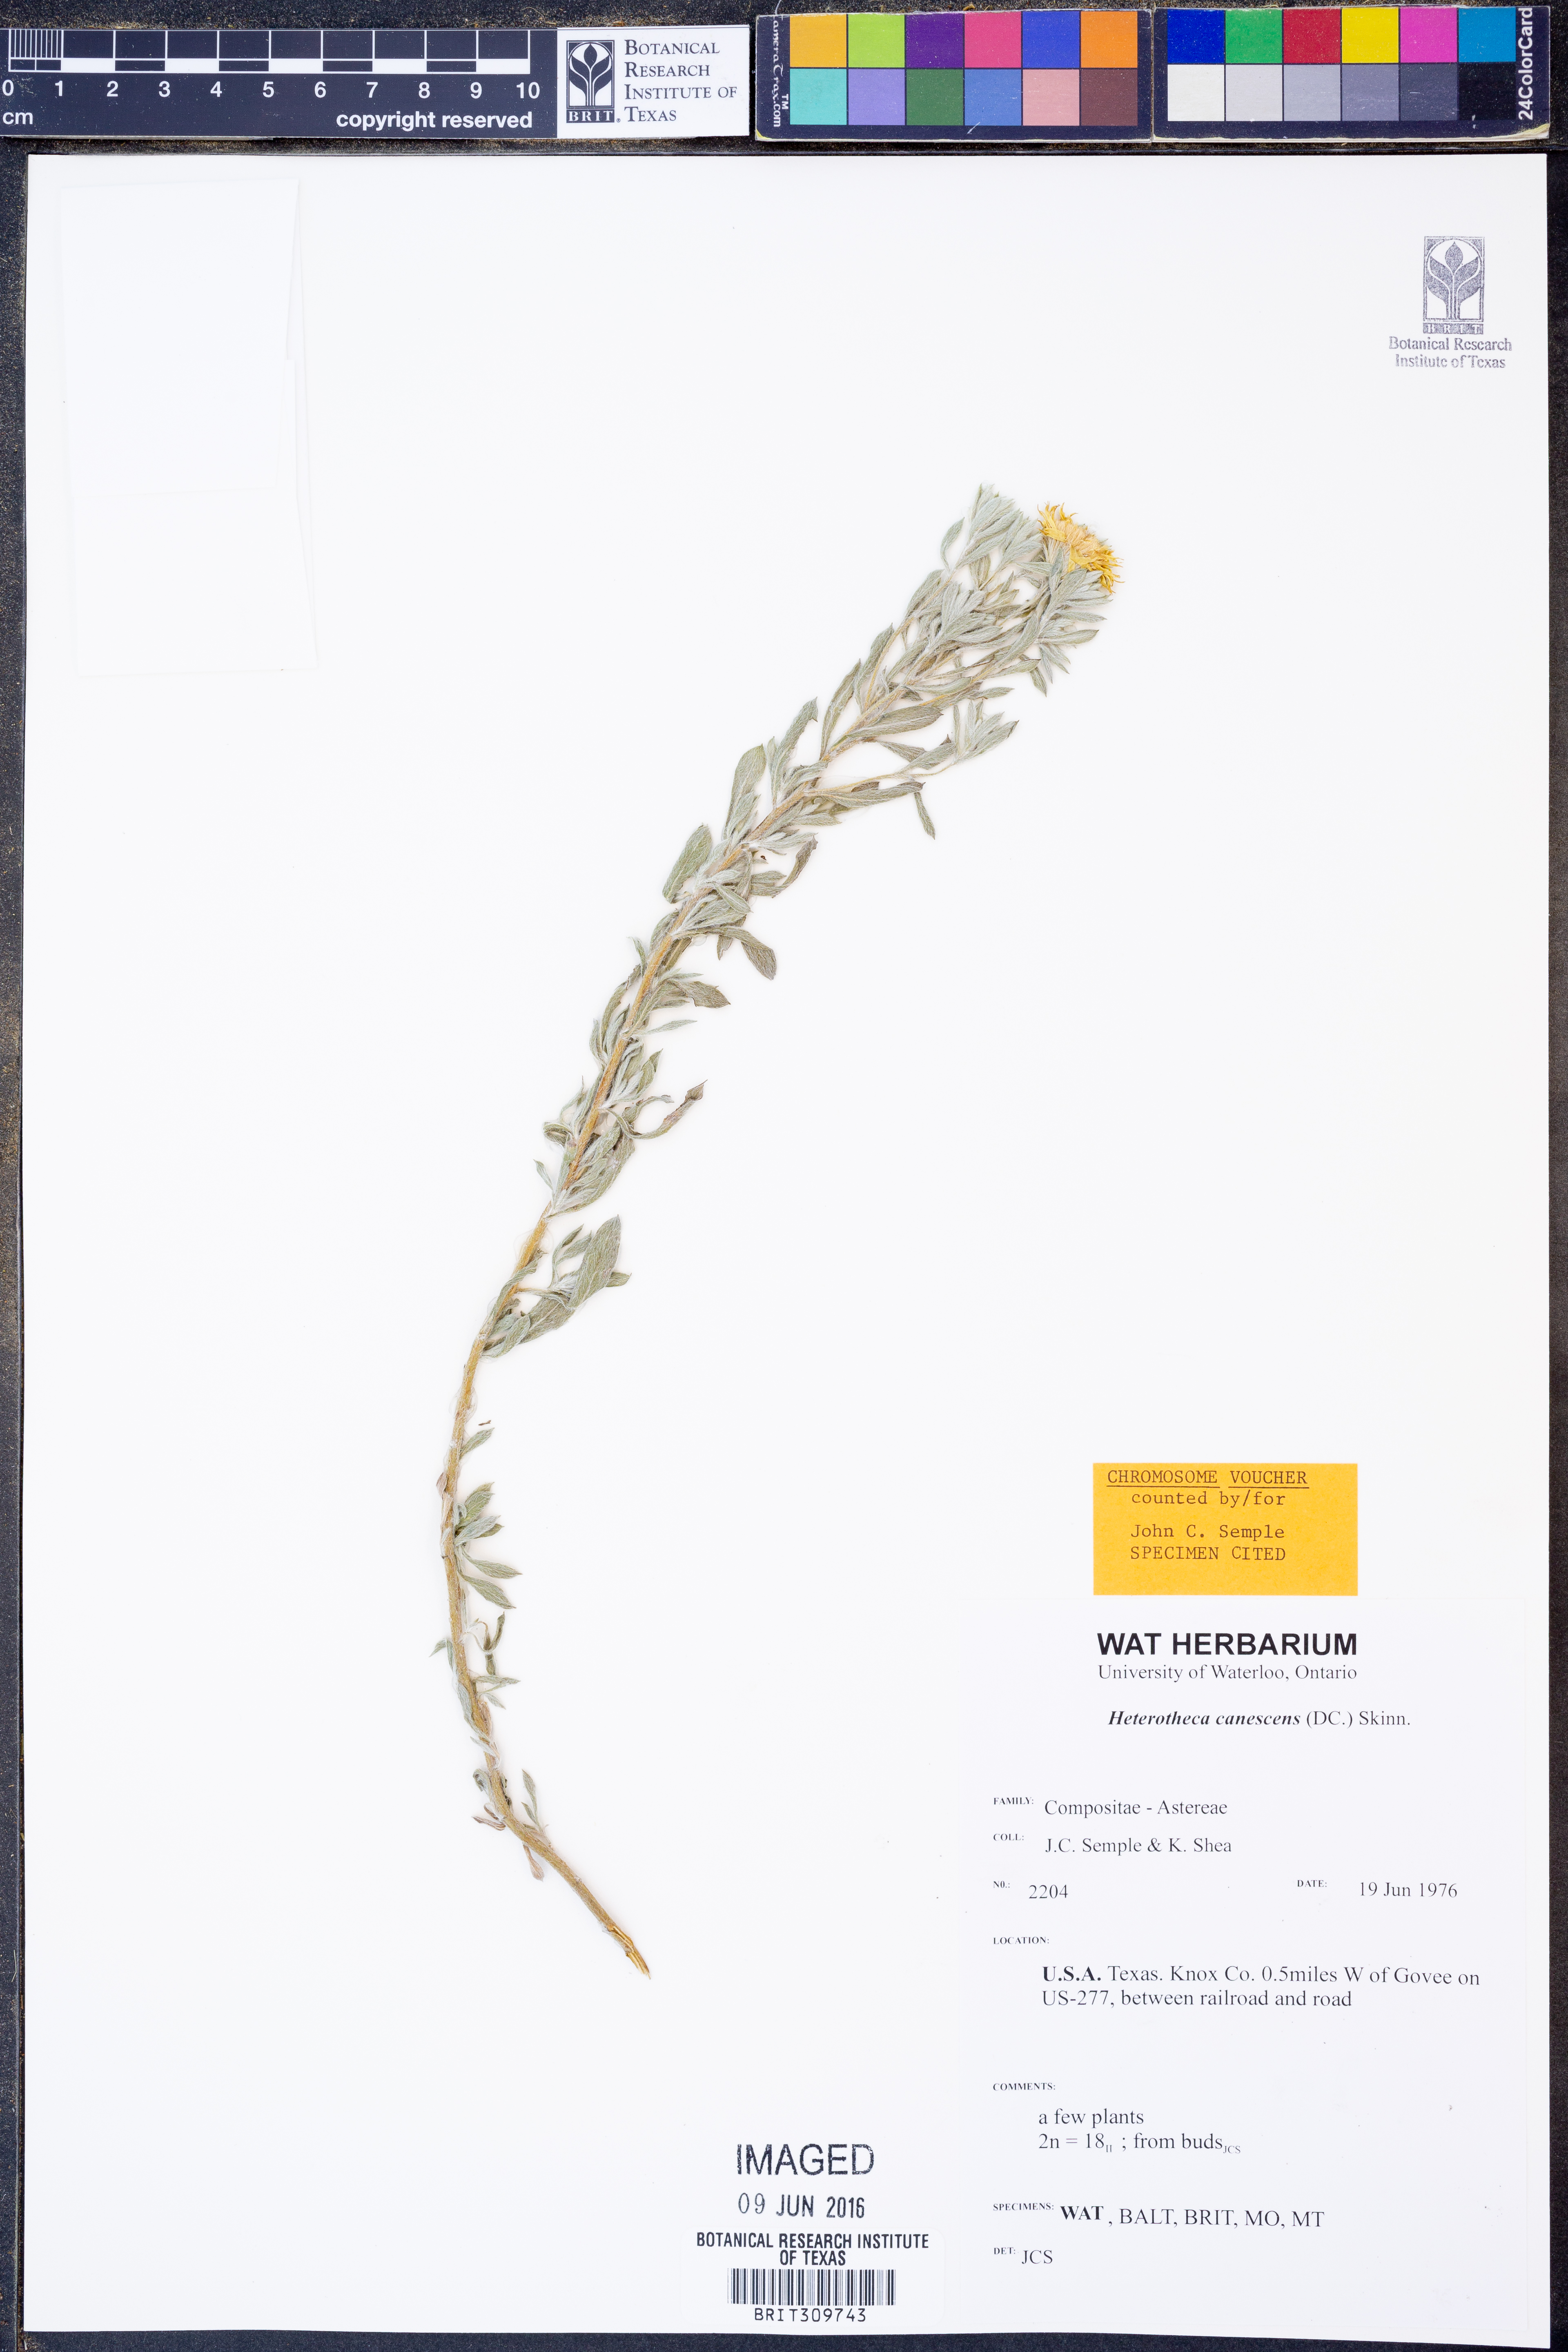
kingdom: Plantae
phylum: Tracheophyta
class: Magnoliopsida
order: Asterales
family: Asteraceae
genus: Heterotheca
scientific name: Heterotheca canescens
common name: Hoary golden-aster
